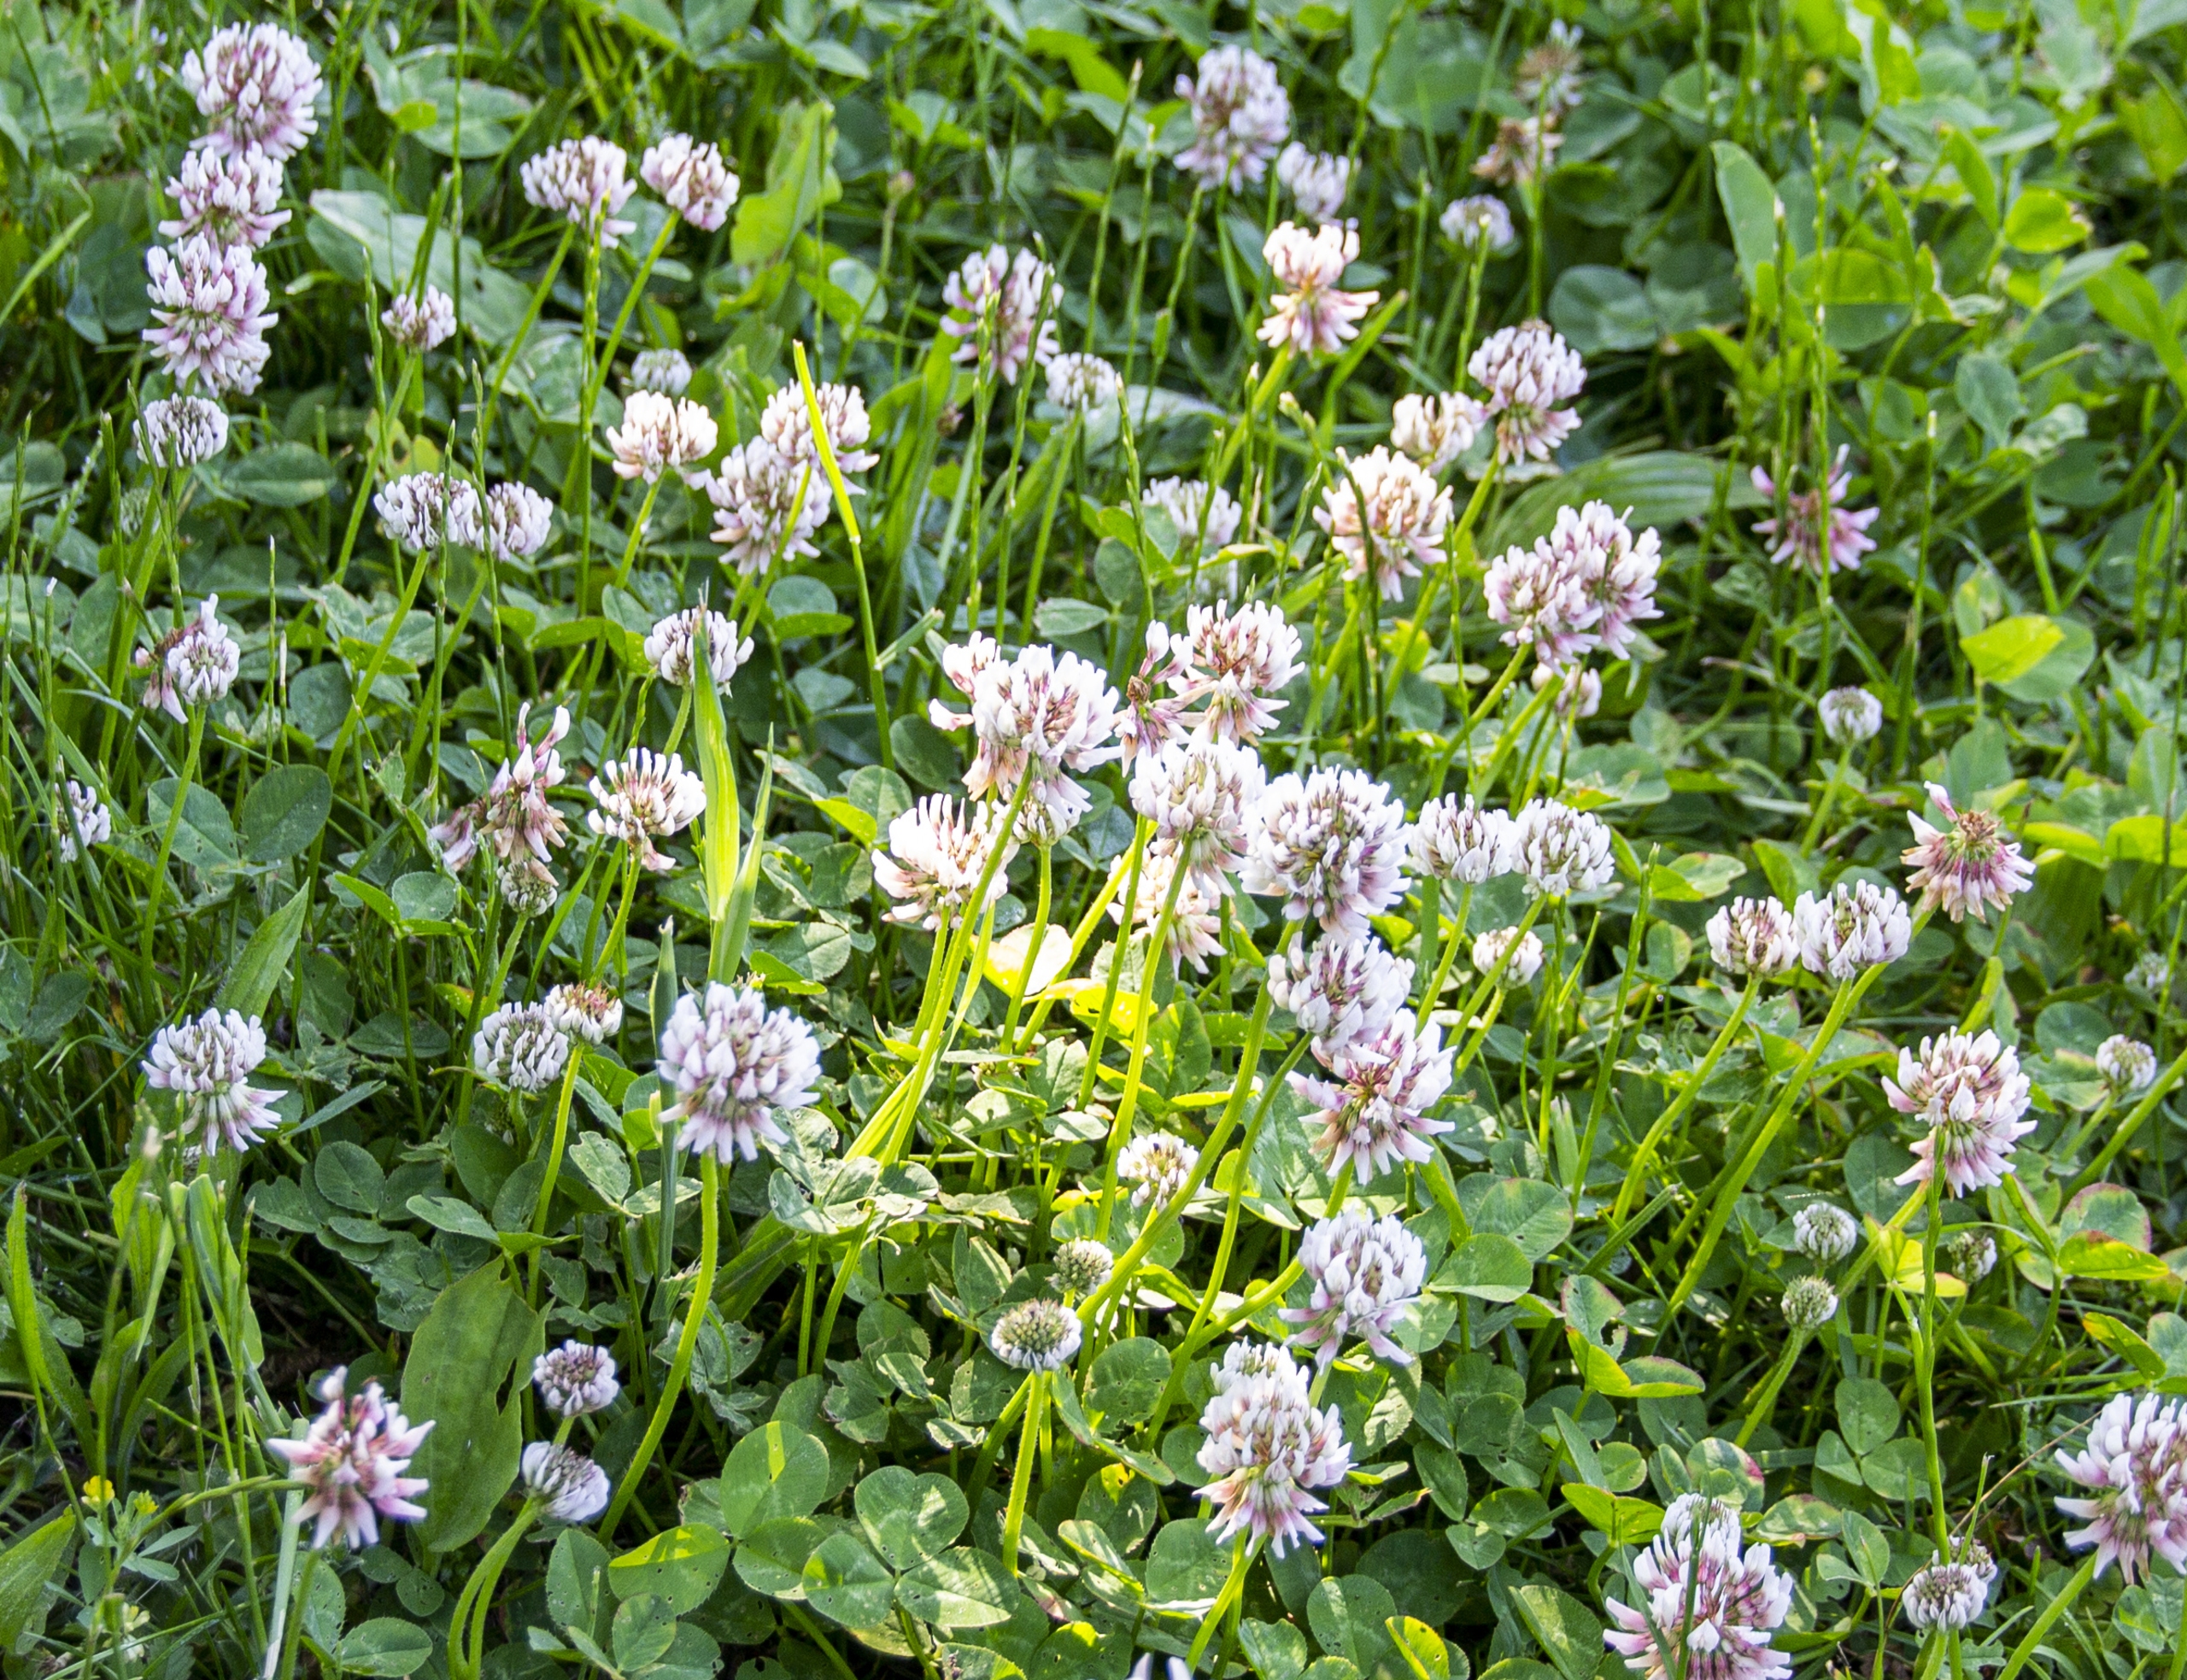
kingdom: Plantae
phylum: Tracheophyta
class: Magnoliopsida
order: Fabales
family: Fabaceae
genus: Trifolium
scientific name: Trifolium repens
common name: Hvid-kløver
